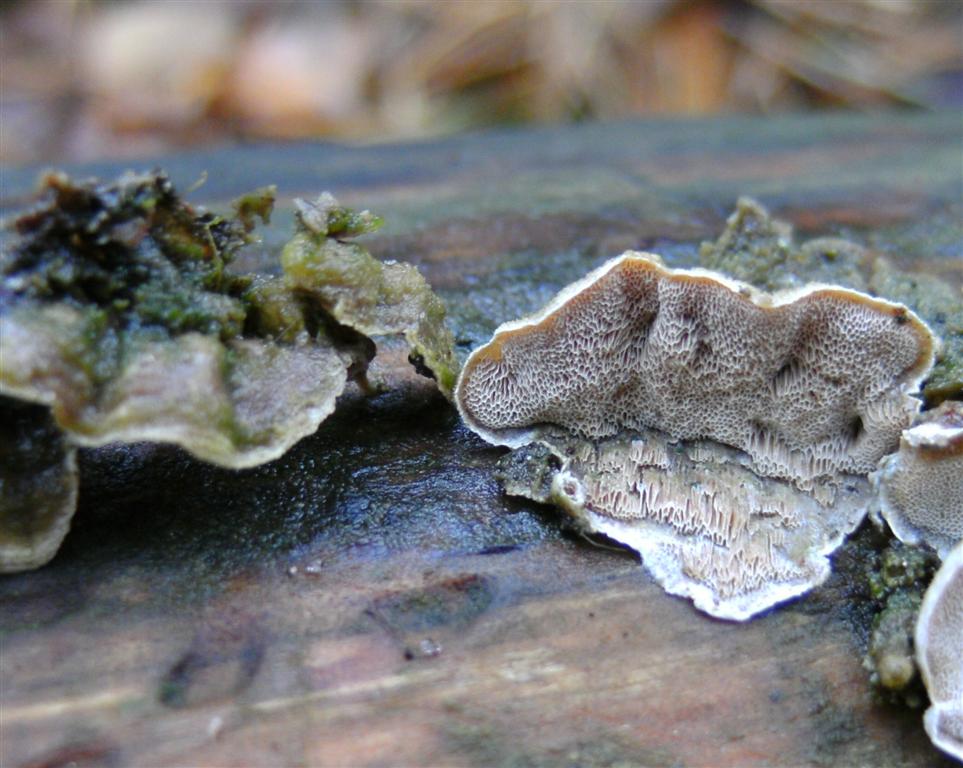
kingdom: Fungi
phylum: Basidiomycota
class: Agaricomycetes
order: Polyporales
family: Incrustoporiaceae
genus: Skeletocutis
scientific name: Skeletocutis carneogrisea
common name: rødgrå krystalporesvamp
